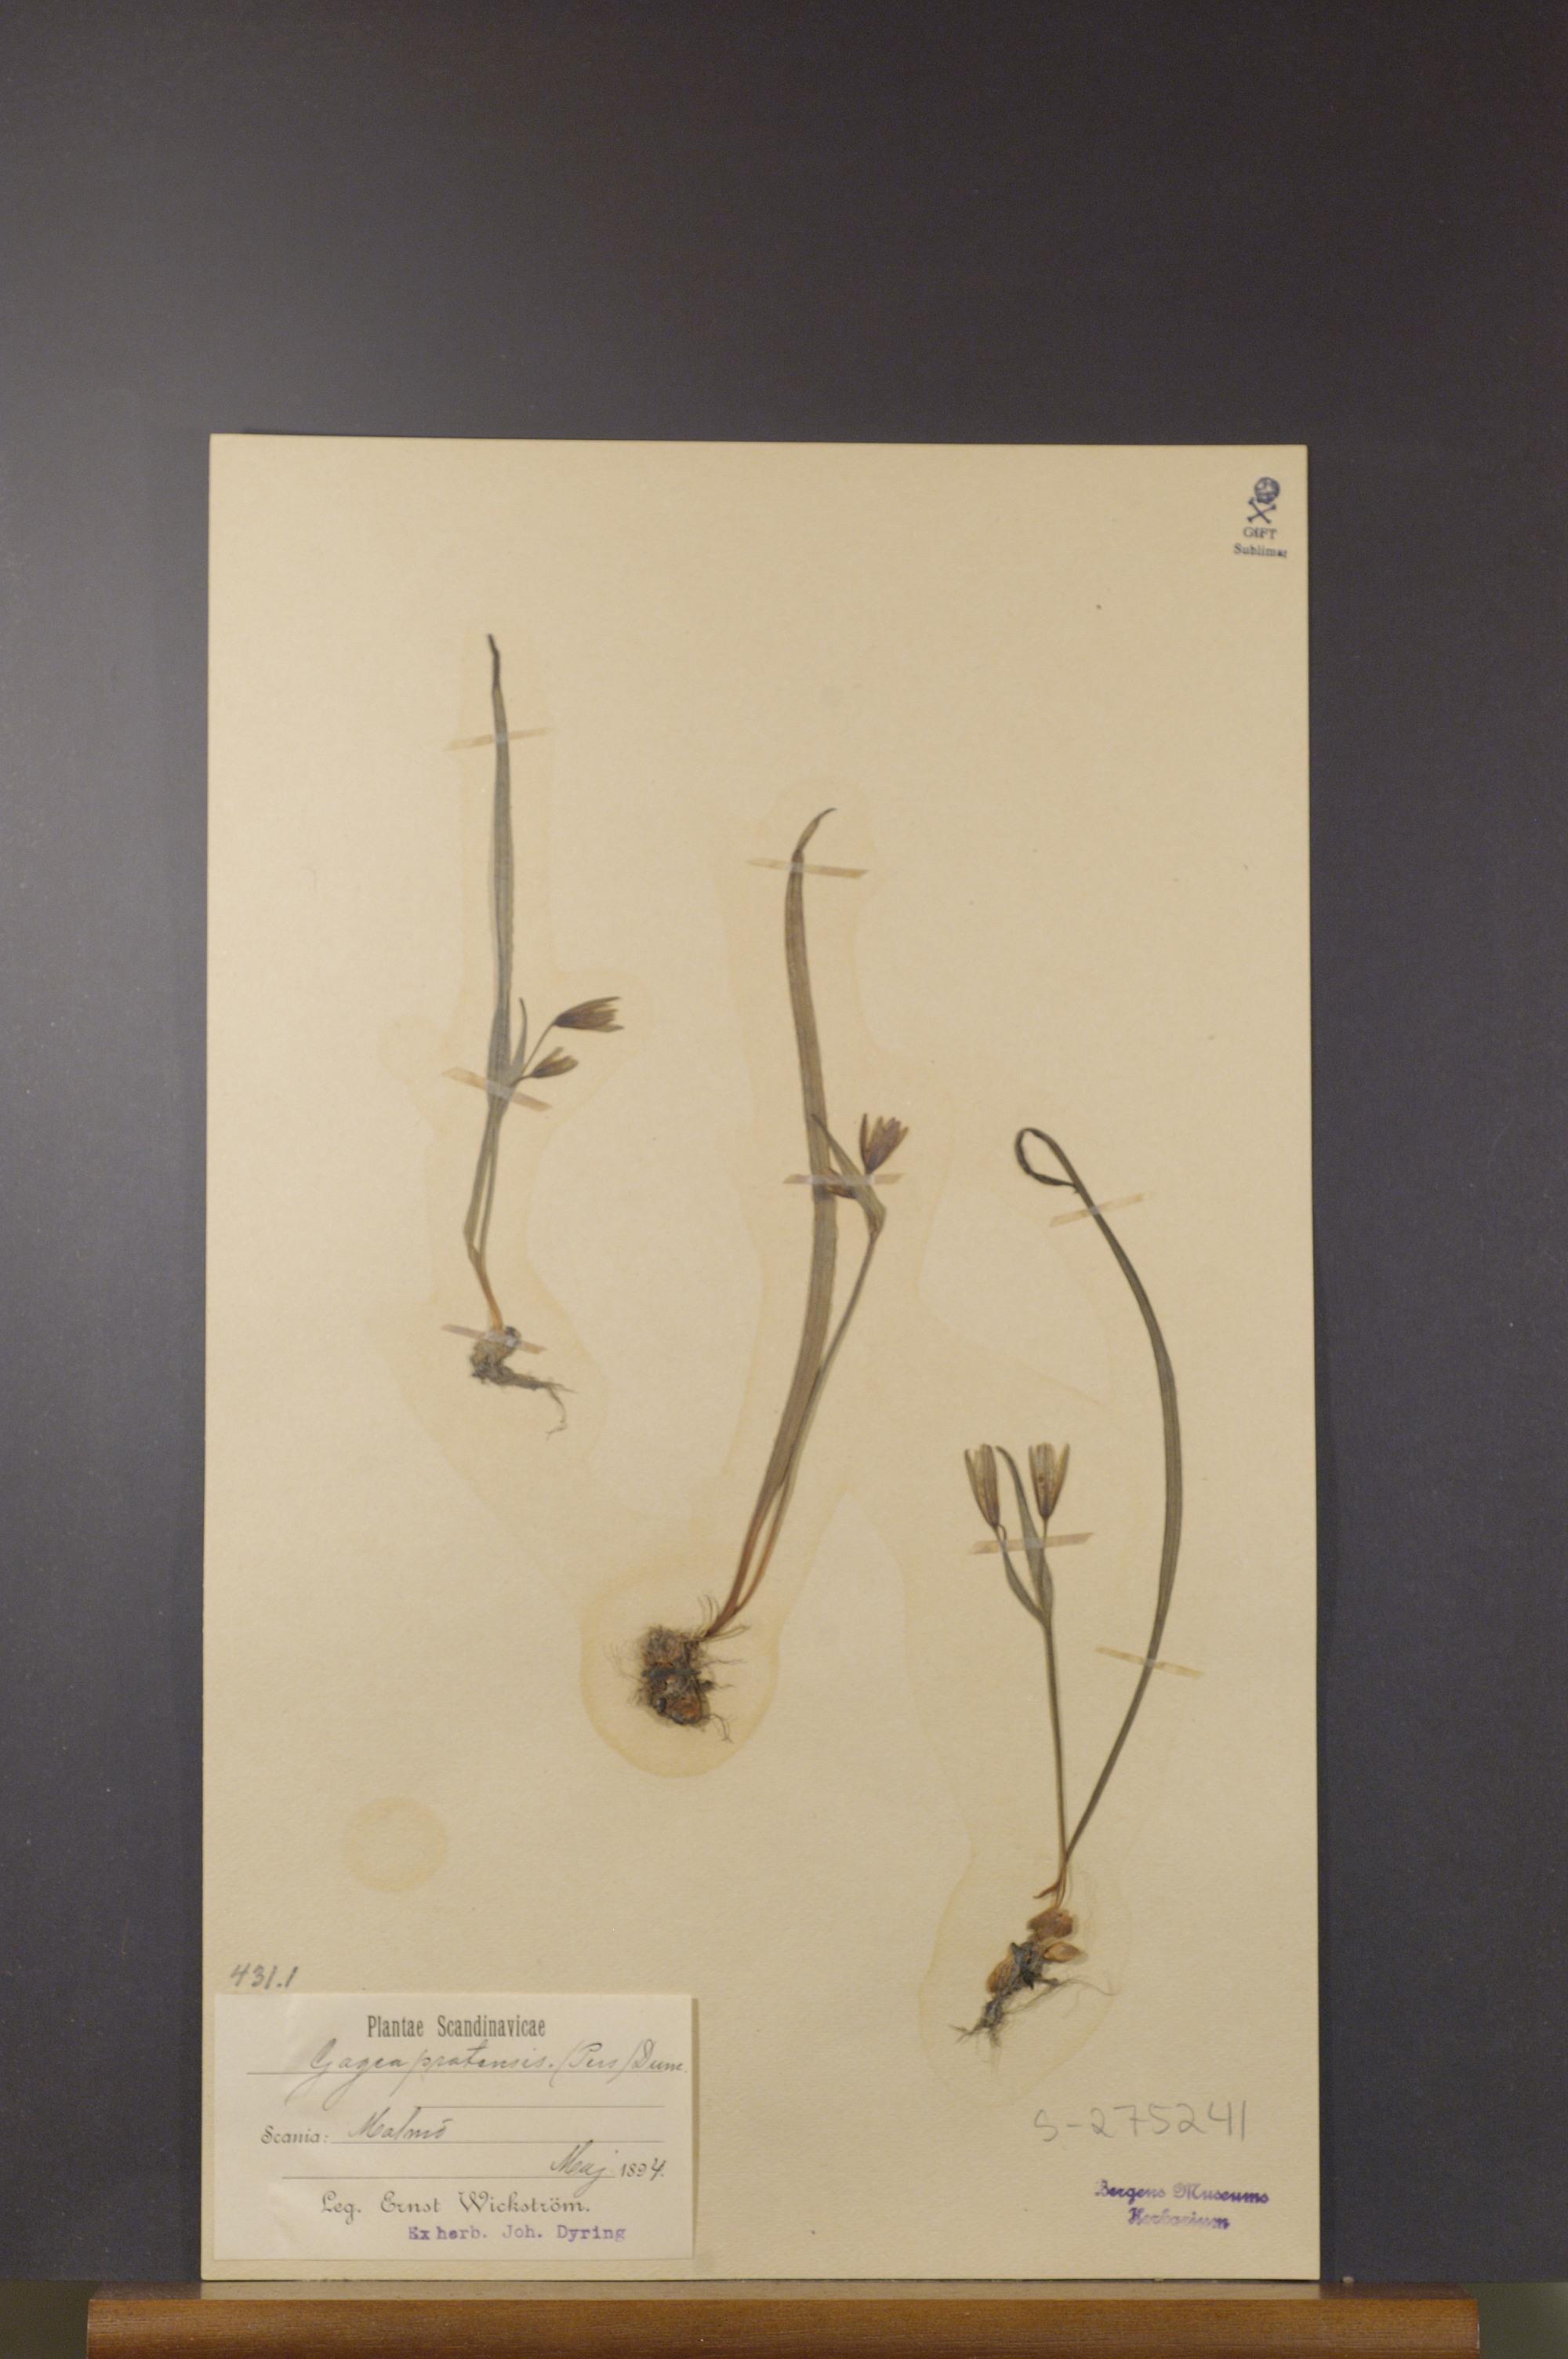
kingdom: Plantae
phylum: Tracheophyta
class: Liliopsida
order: Liliales
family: Liliaceae
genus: Gagea
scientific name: Gagea pratensis
